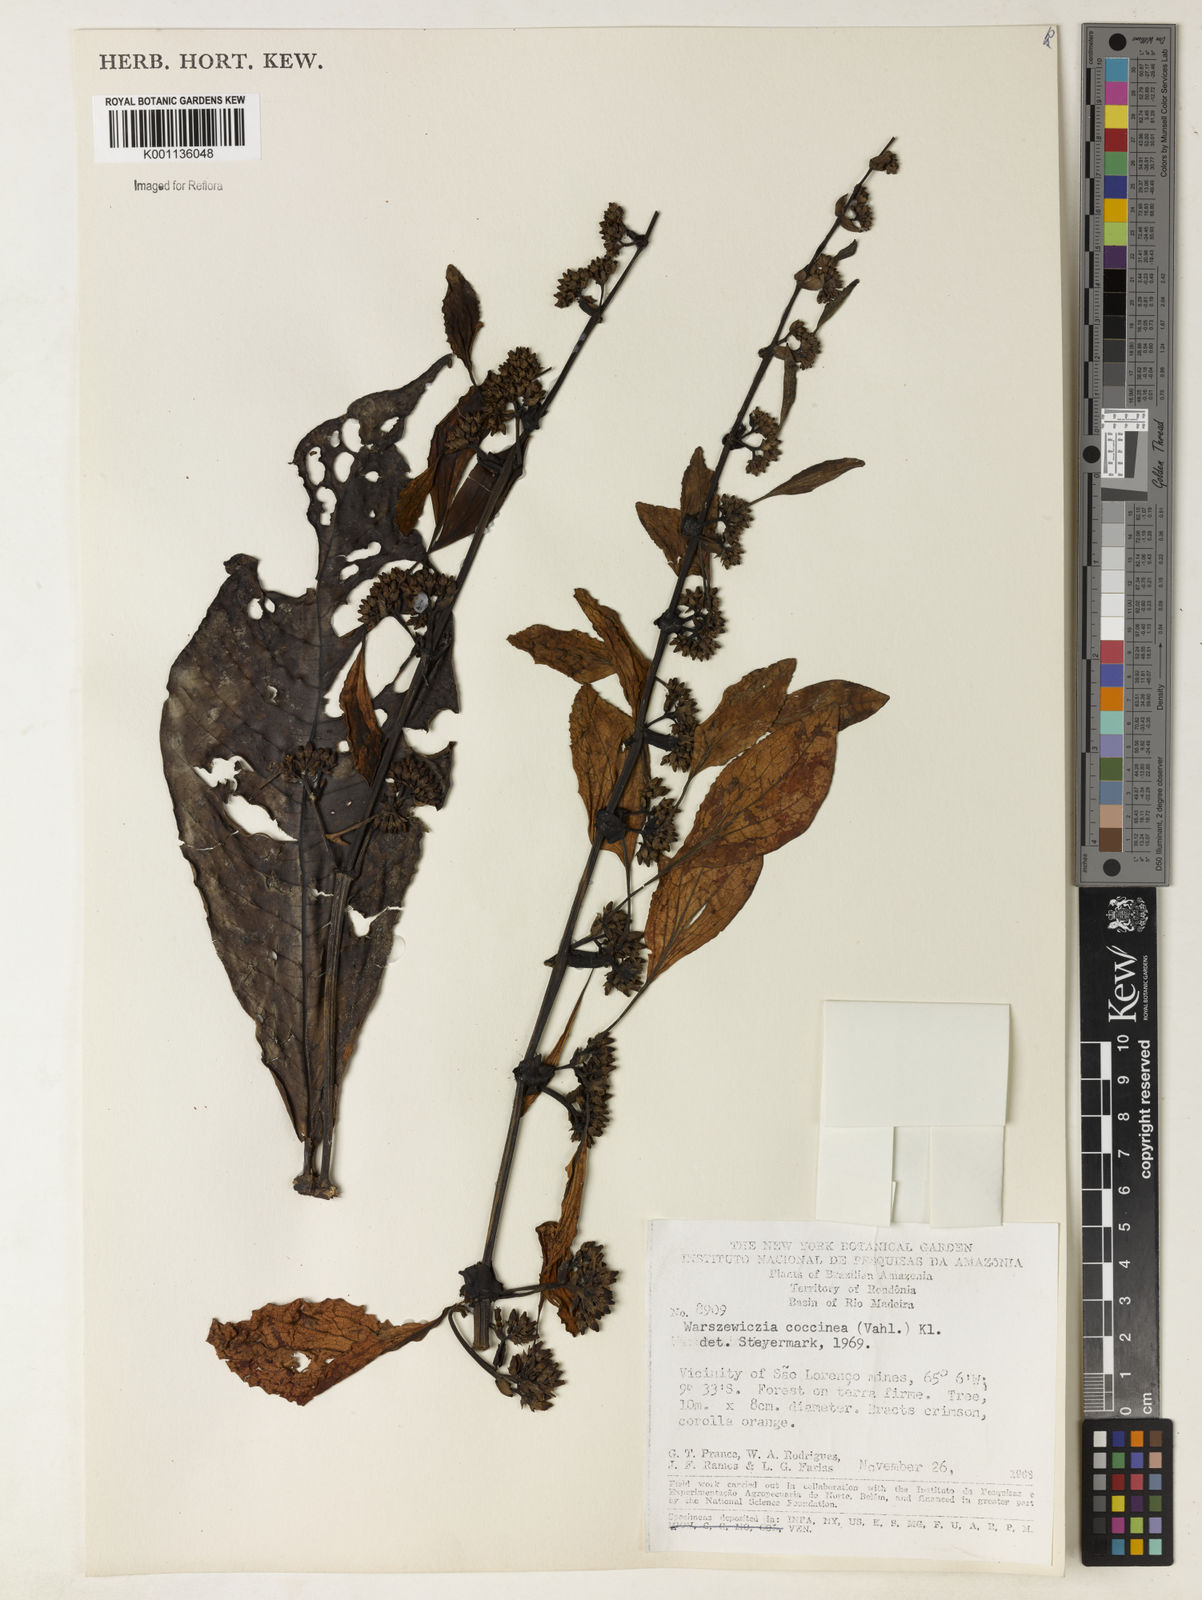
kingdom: Plantae
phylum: Tracheophyta
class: Magnoliopsida
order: Gentianales
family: Rubiaceae
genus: Warszewiczia
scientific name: Warszewiczia coccinea
